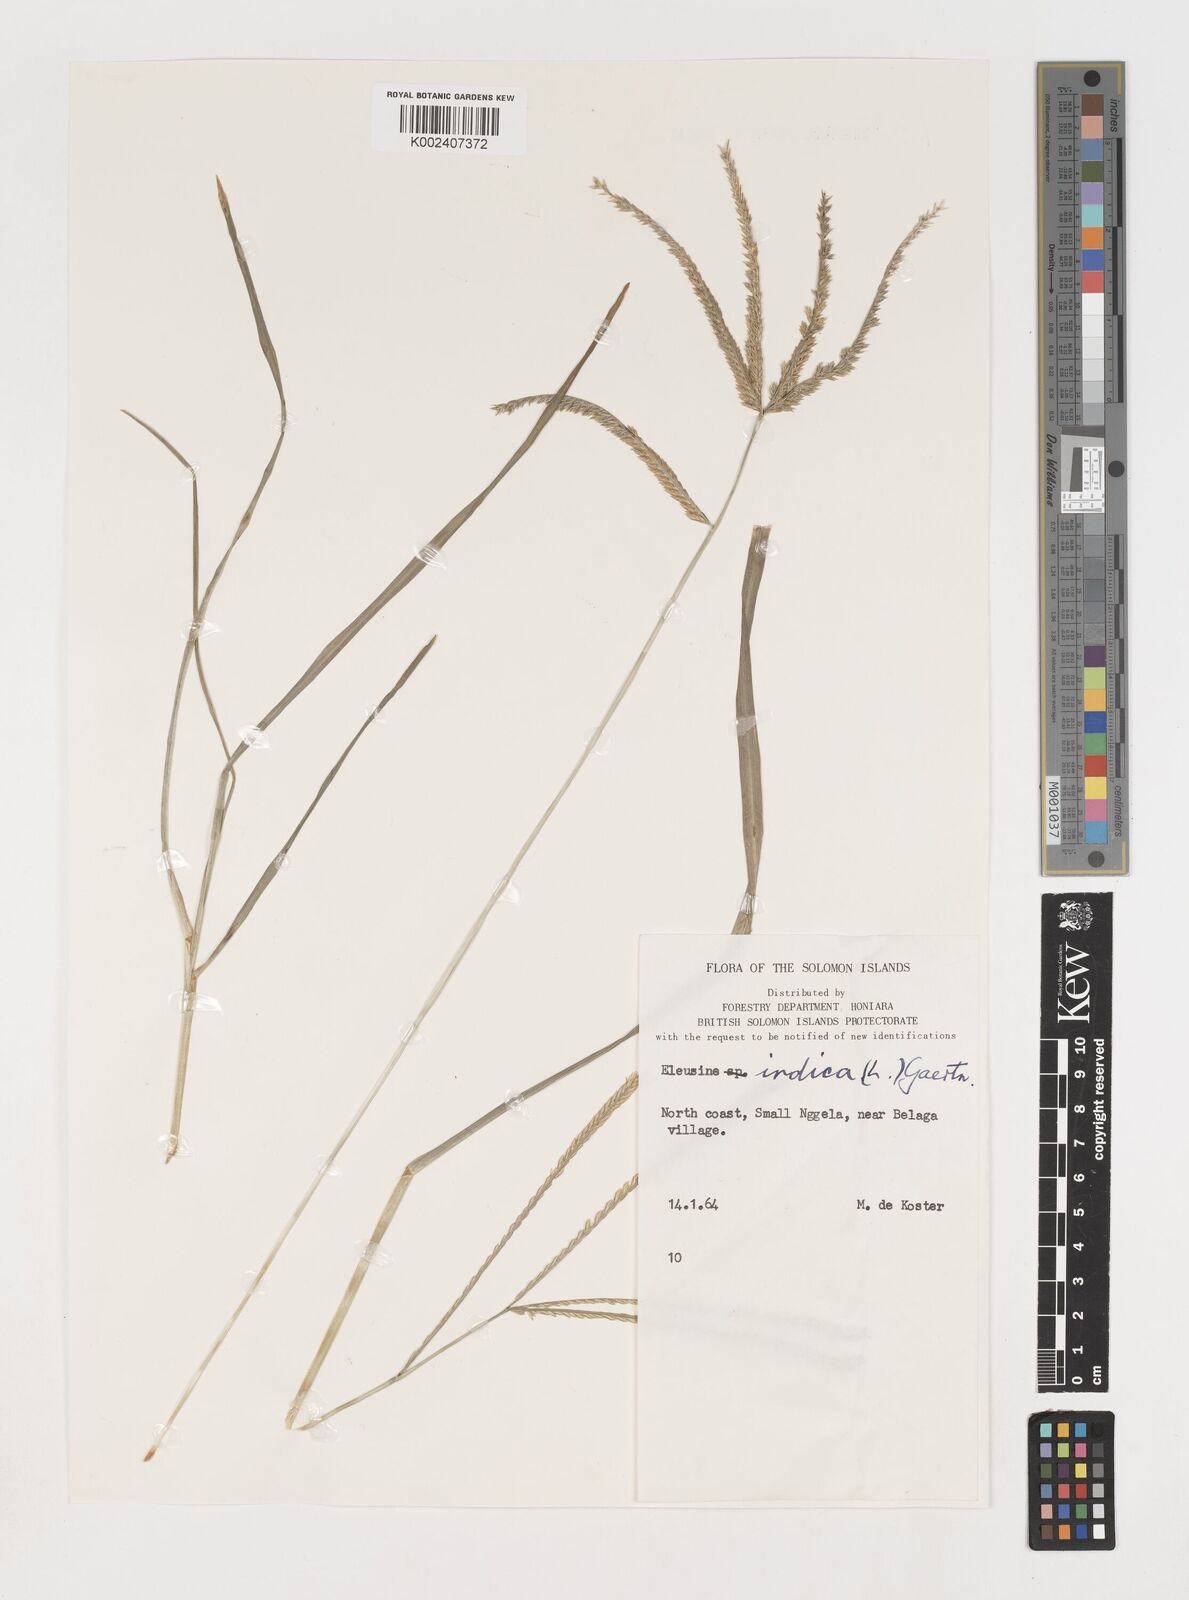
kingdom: Plantae
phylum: Tracheophyta
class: Liliopsida
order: Poales
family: Poaceae
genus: Eleusine
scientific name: Eleusine indica
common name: Yard-grass
